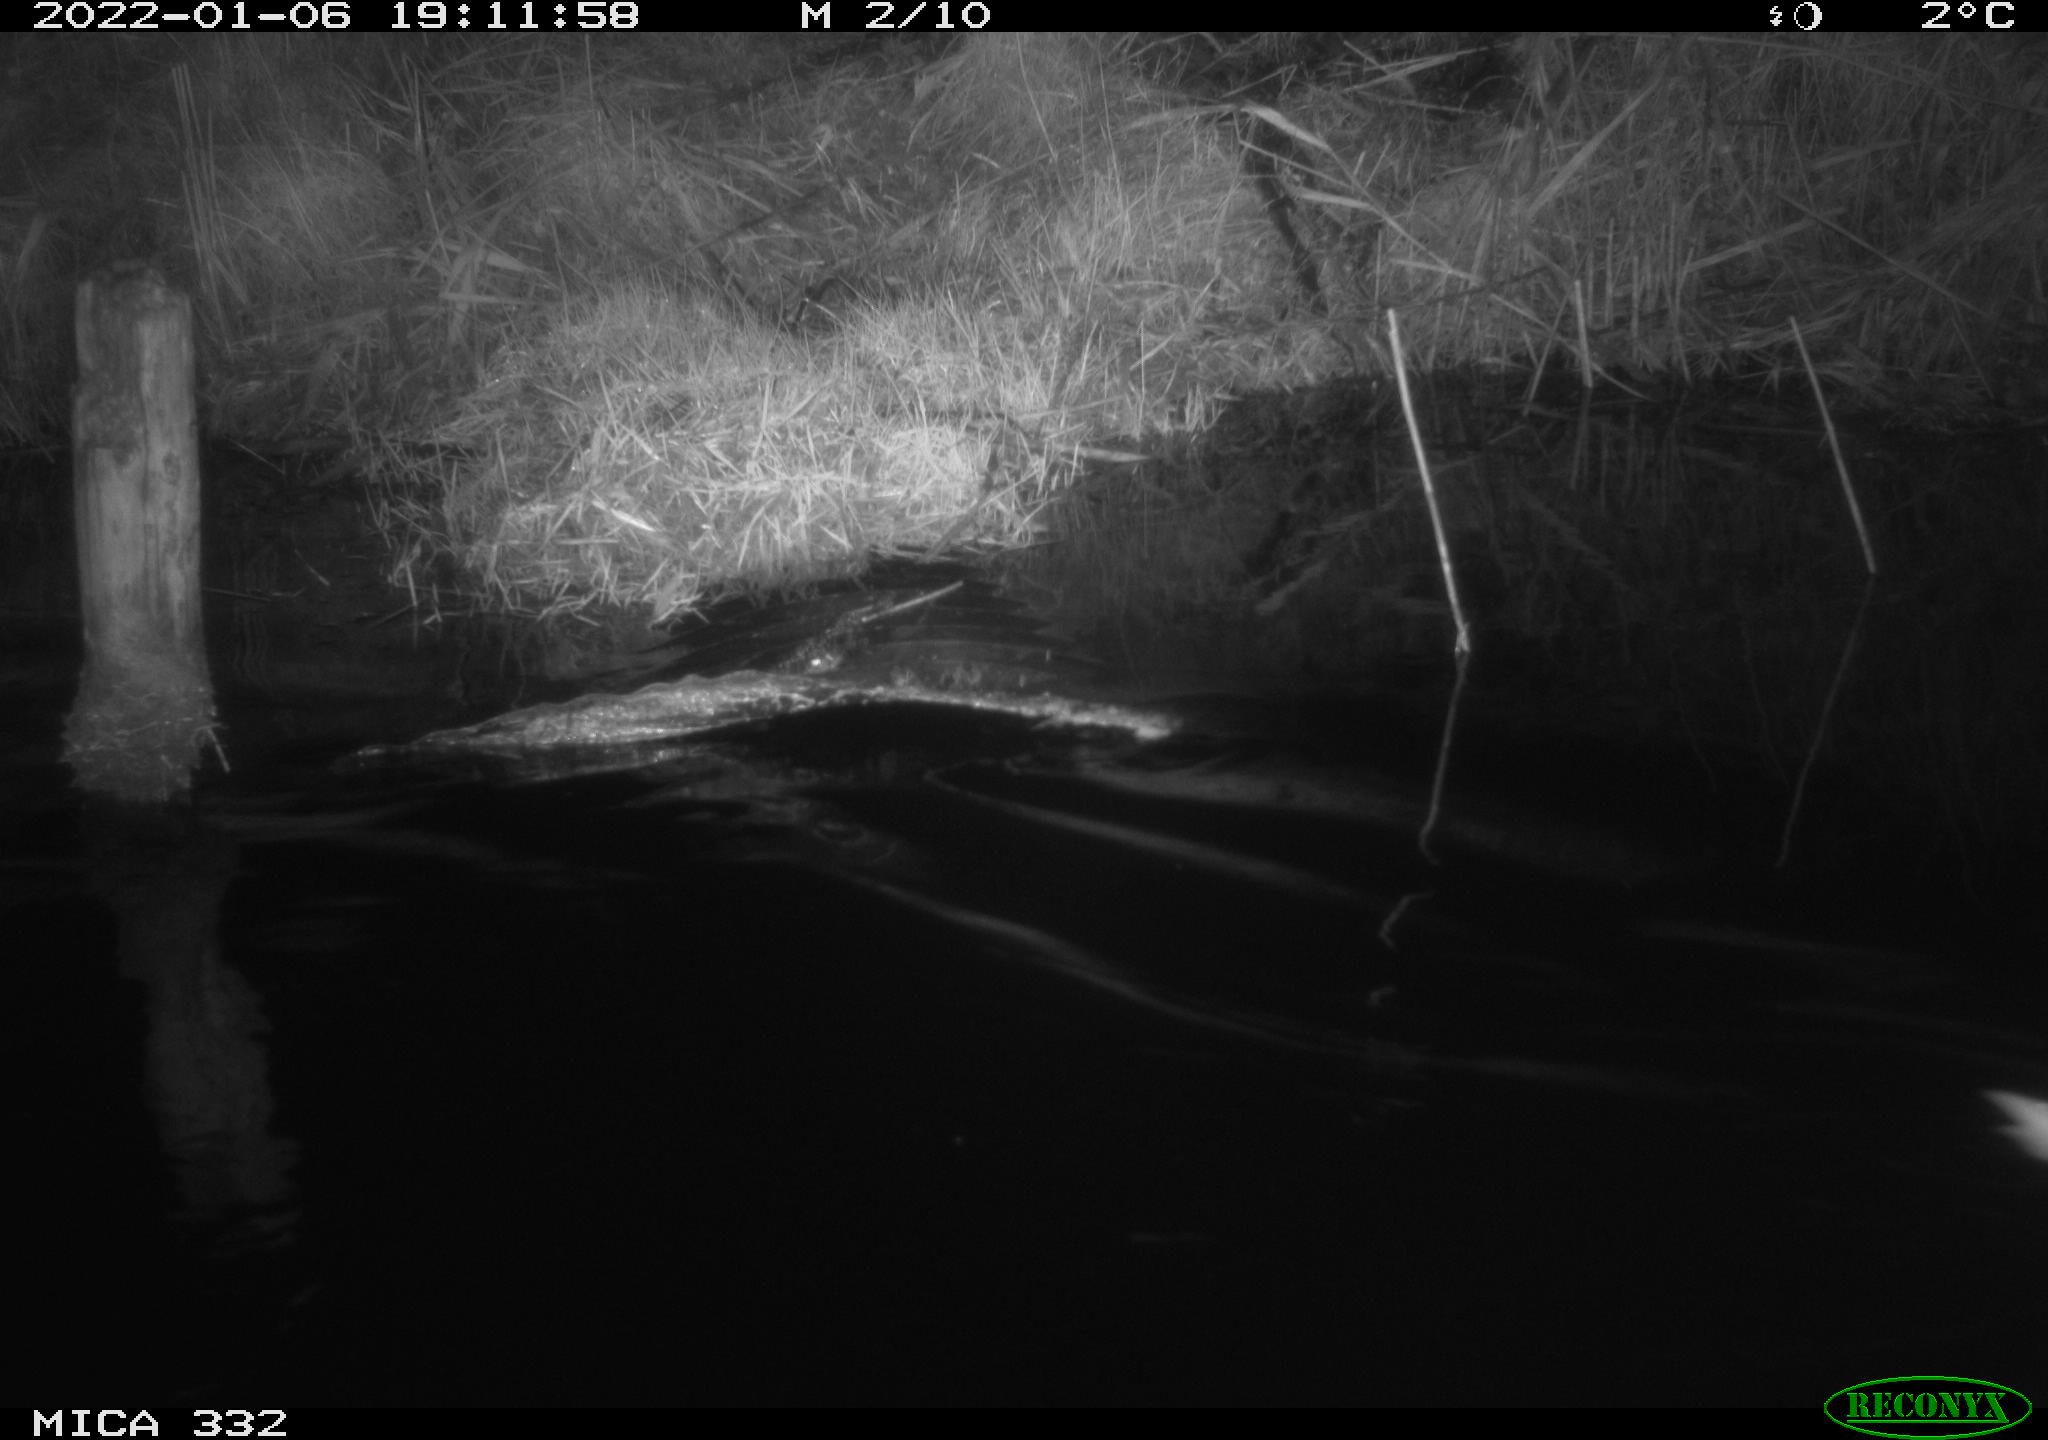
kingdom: Animalia
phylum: Chordata
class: Aves
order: Anseriformes
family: Anatidae
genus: Cygnus
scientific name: Cygnus olor
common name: Mute swan
